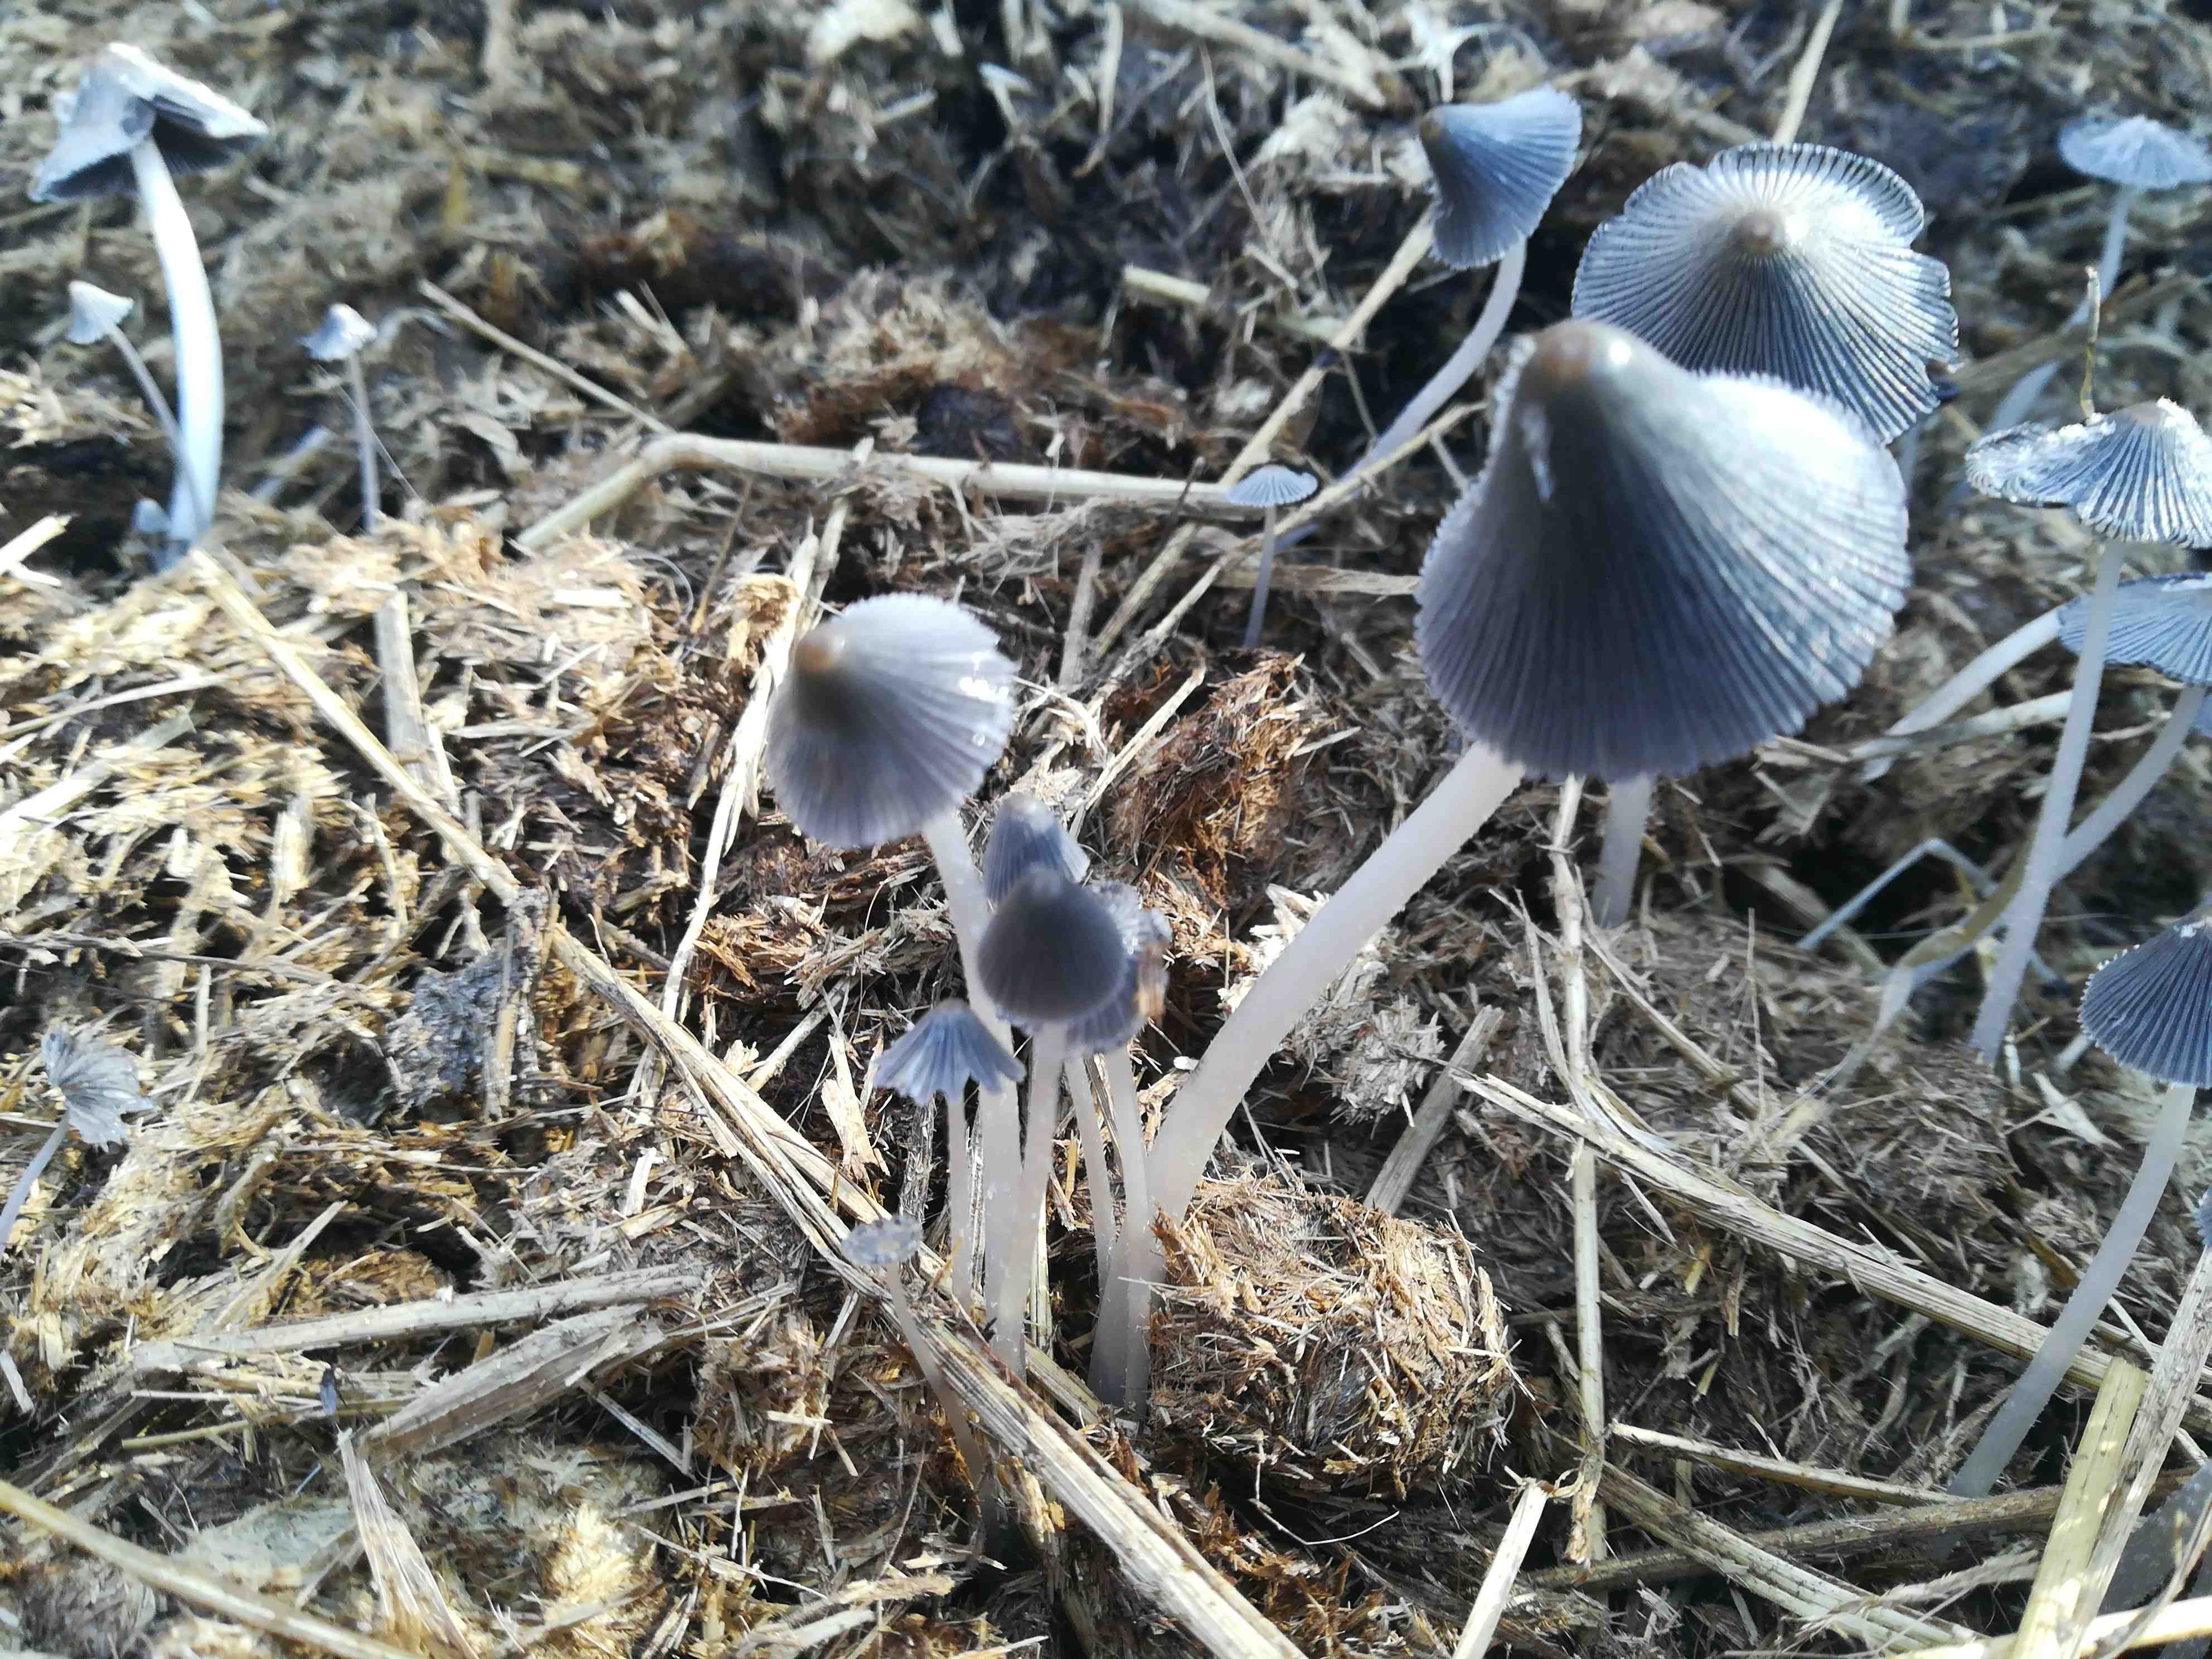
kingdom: Fungi
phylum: Basidiomycota
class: Agaricomycetes
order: Agaricales
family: Psathyrellaceae
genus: Coprinopsis
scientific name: Coprinopsis
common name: blækhat
